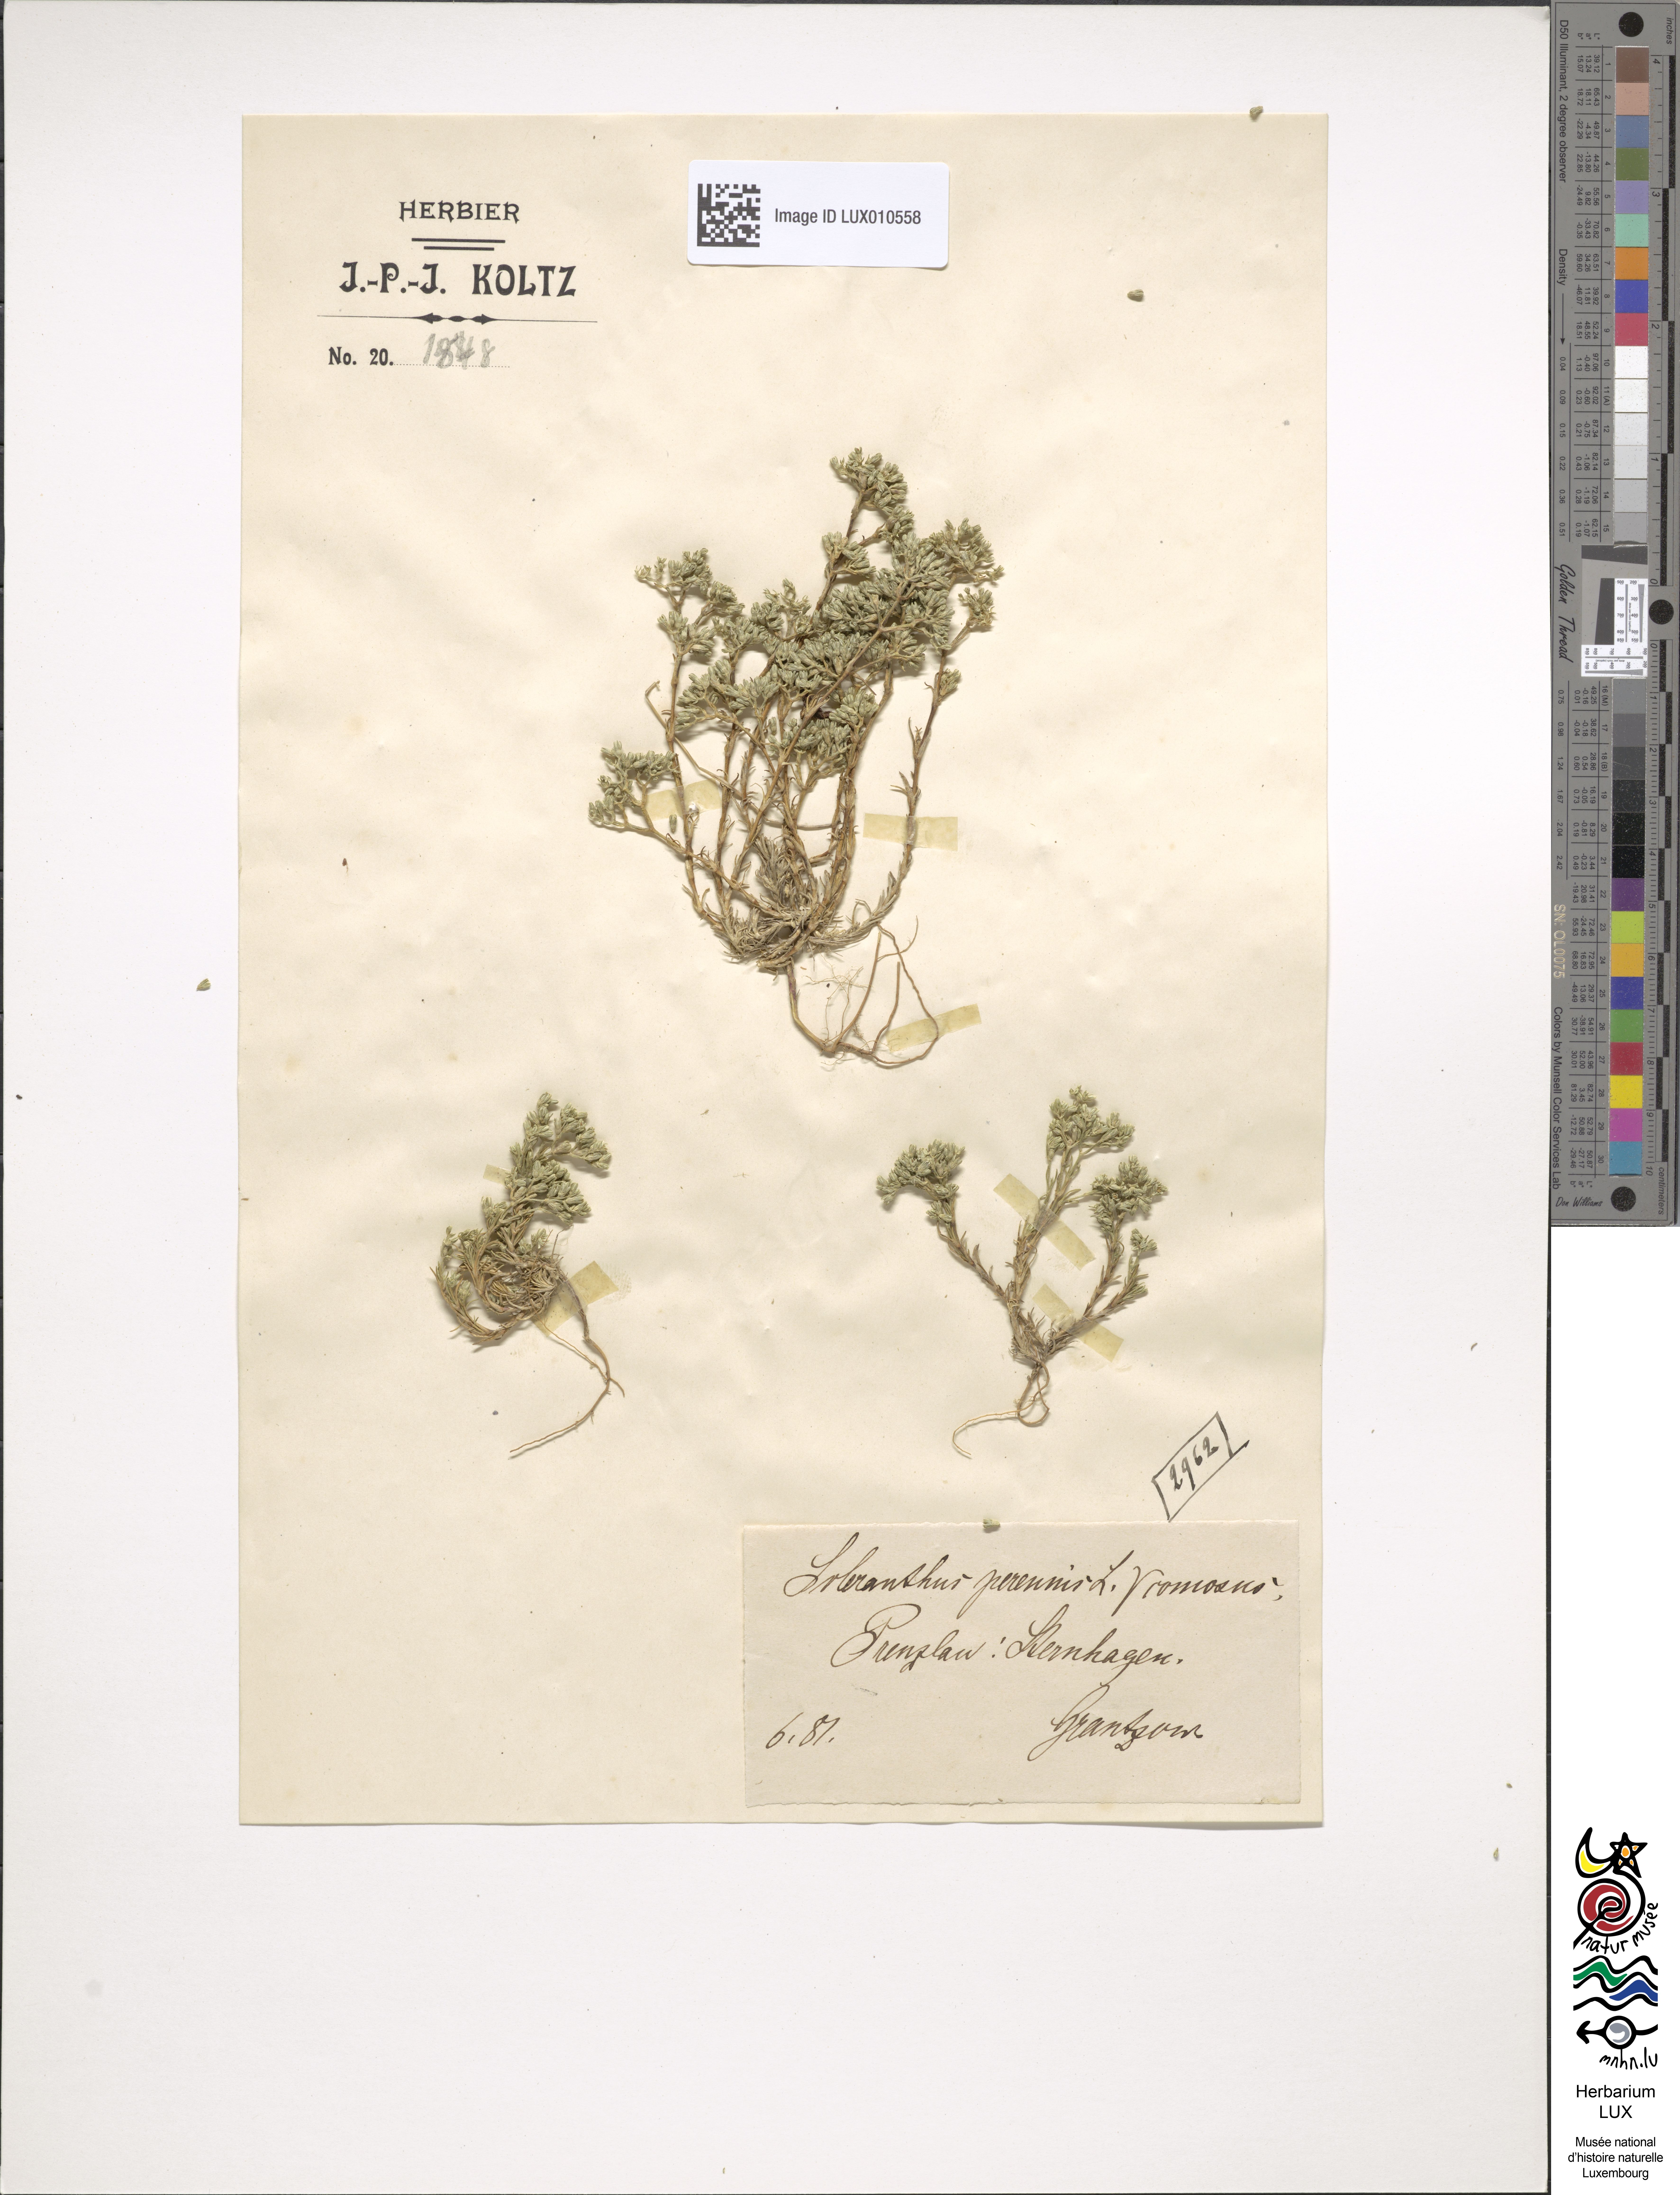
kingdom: Plantae
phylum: Tracheophyta
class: Magnoliopsida
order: Caryophyllales
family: Caryophyllaceae
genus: Scleranthus
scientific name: Scleranthus perennis
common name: Perennial knawel
